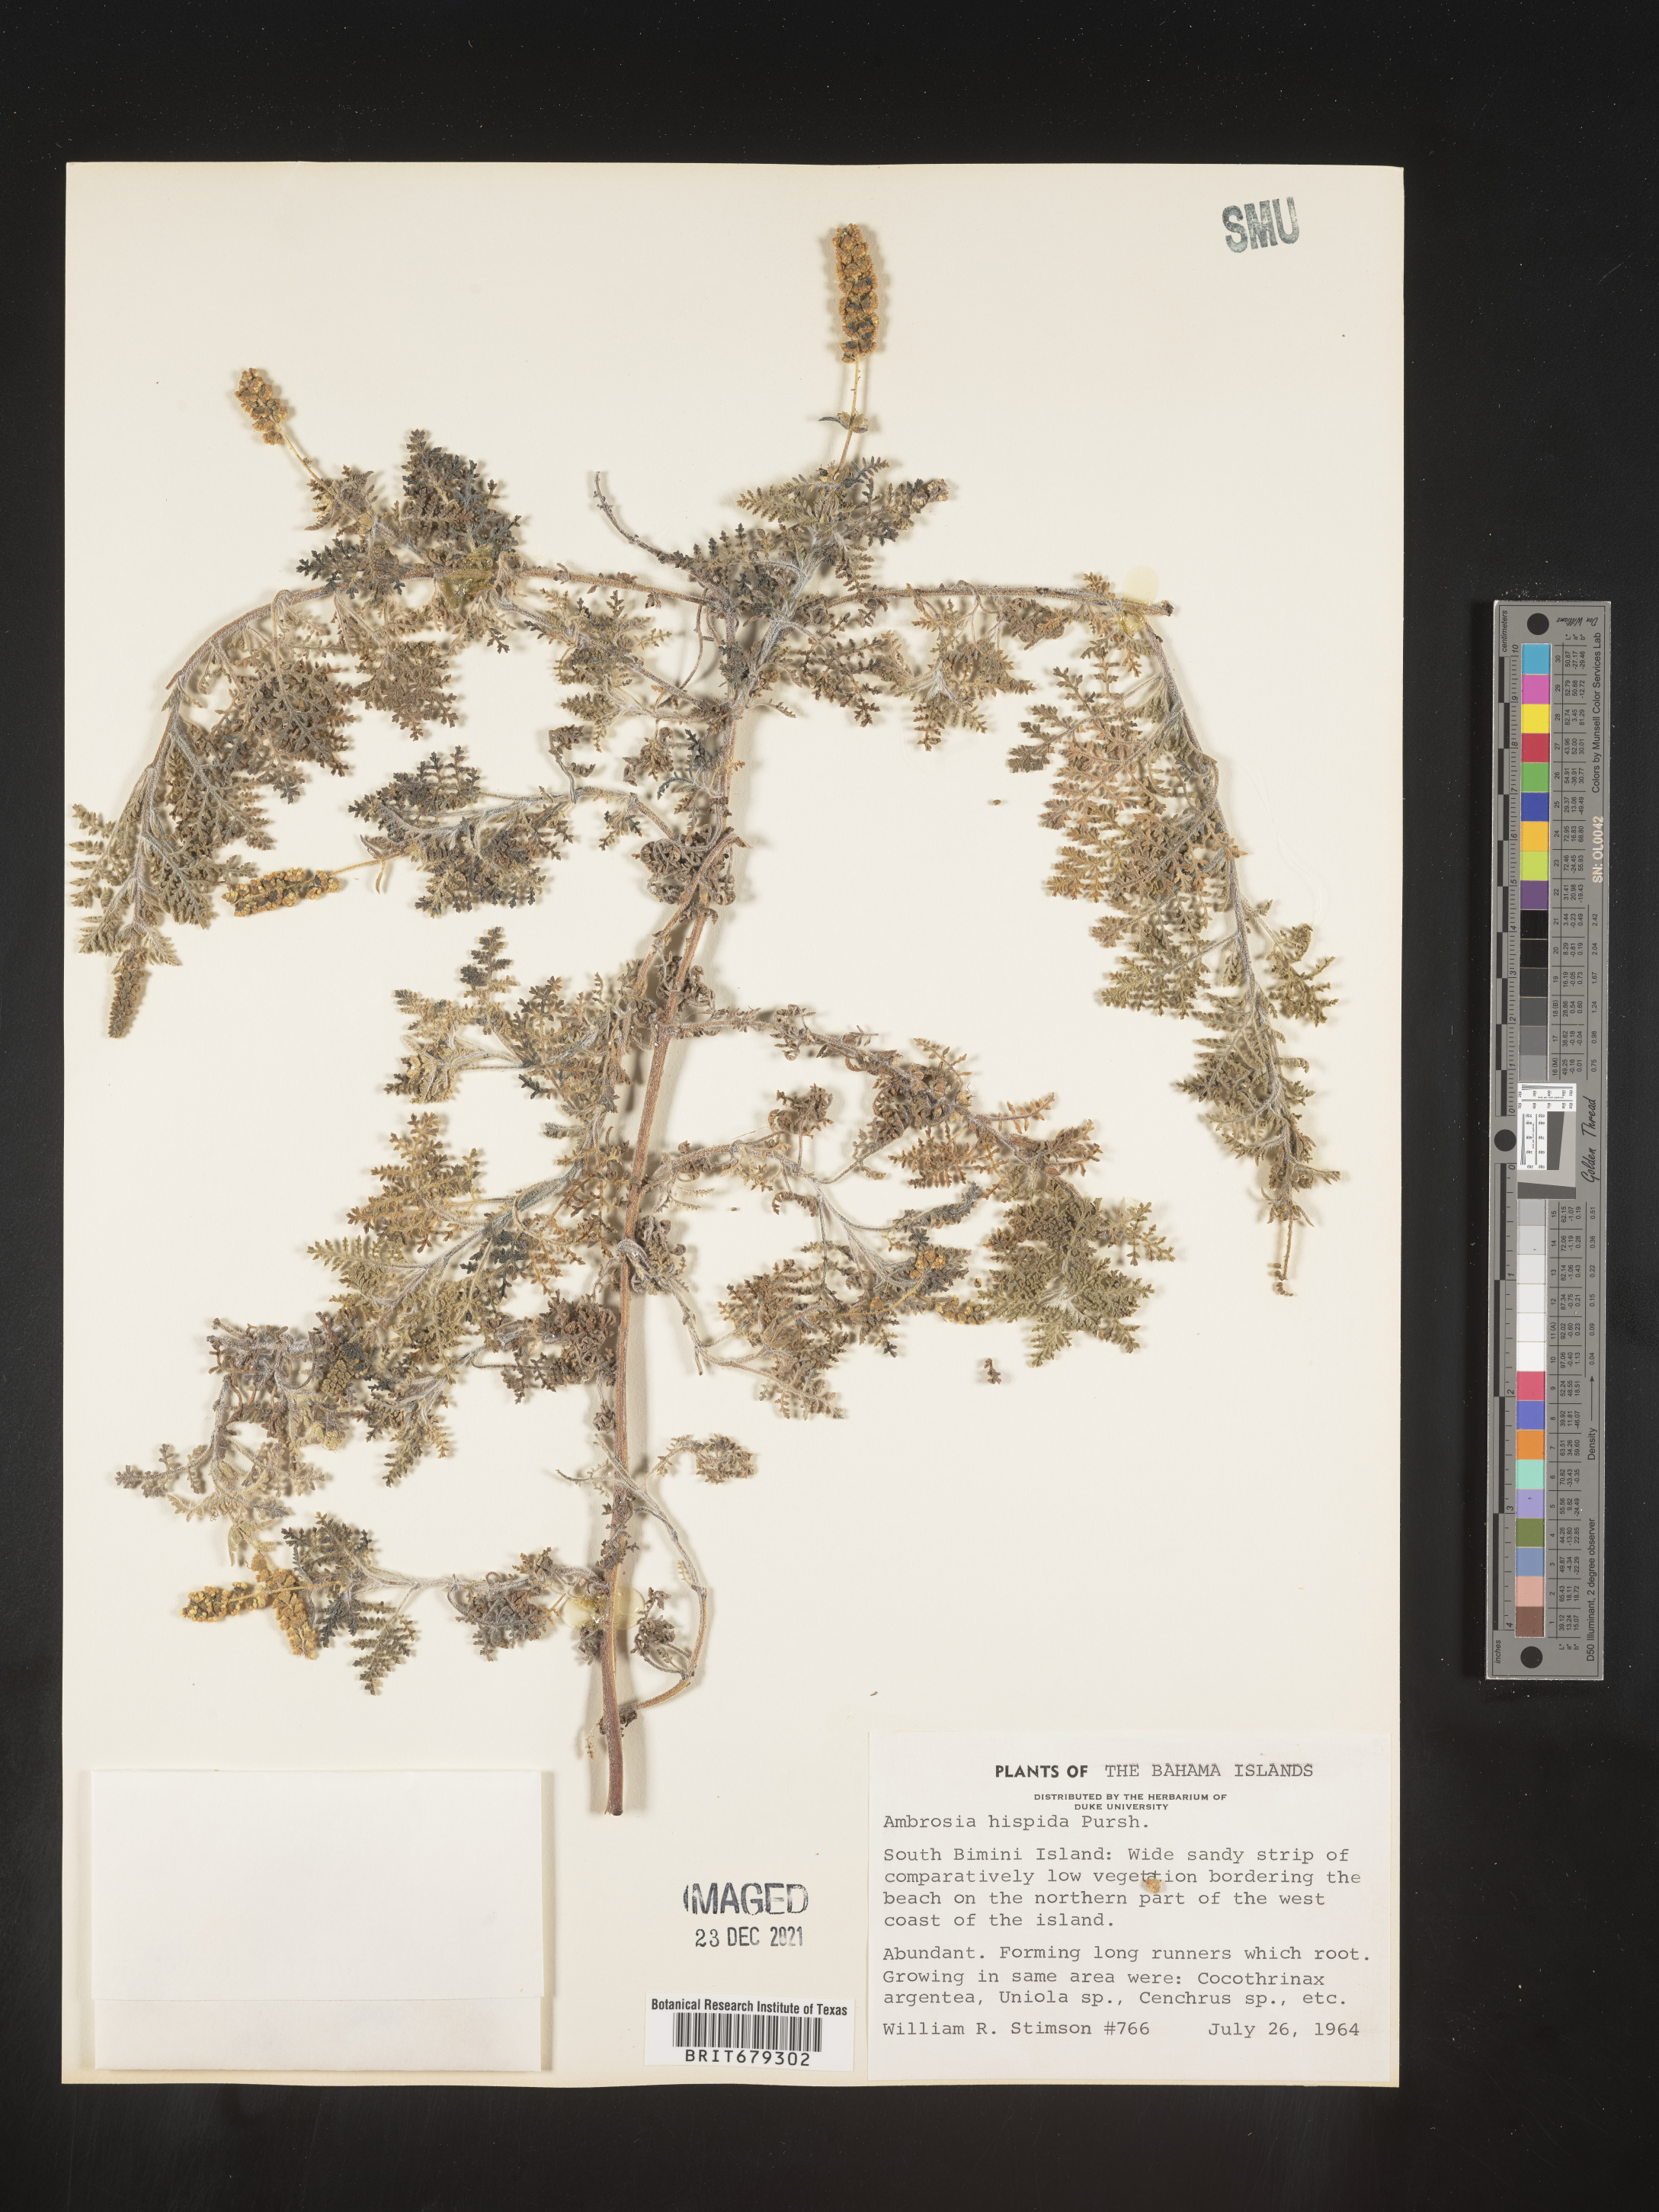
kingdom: Plantae
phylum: Tracheophyta
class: Magnoliopsida
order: Asterales
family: Asteraceae
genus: Ambrosia
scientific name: Ambrosia
